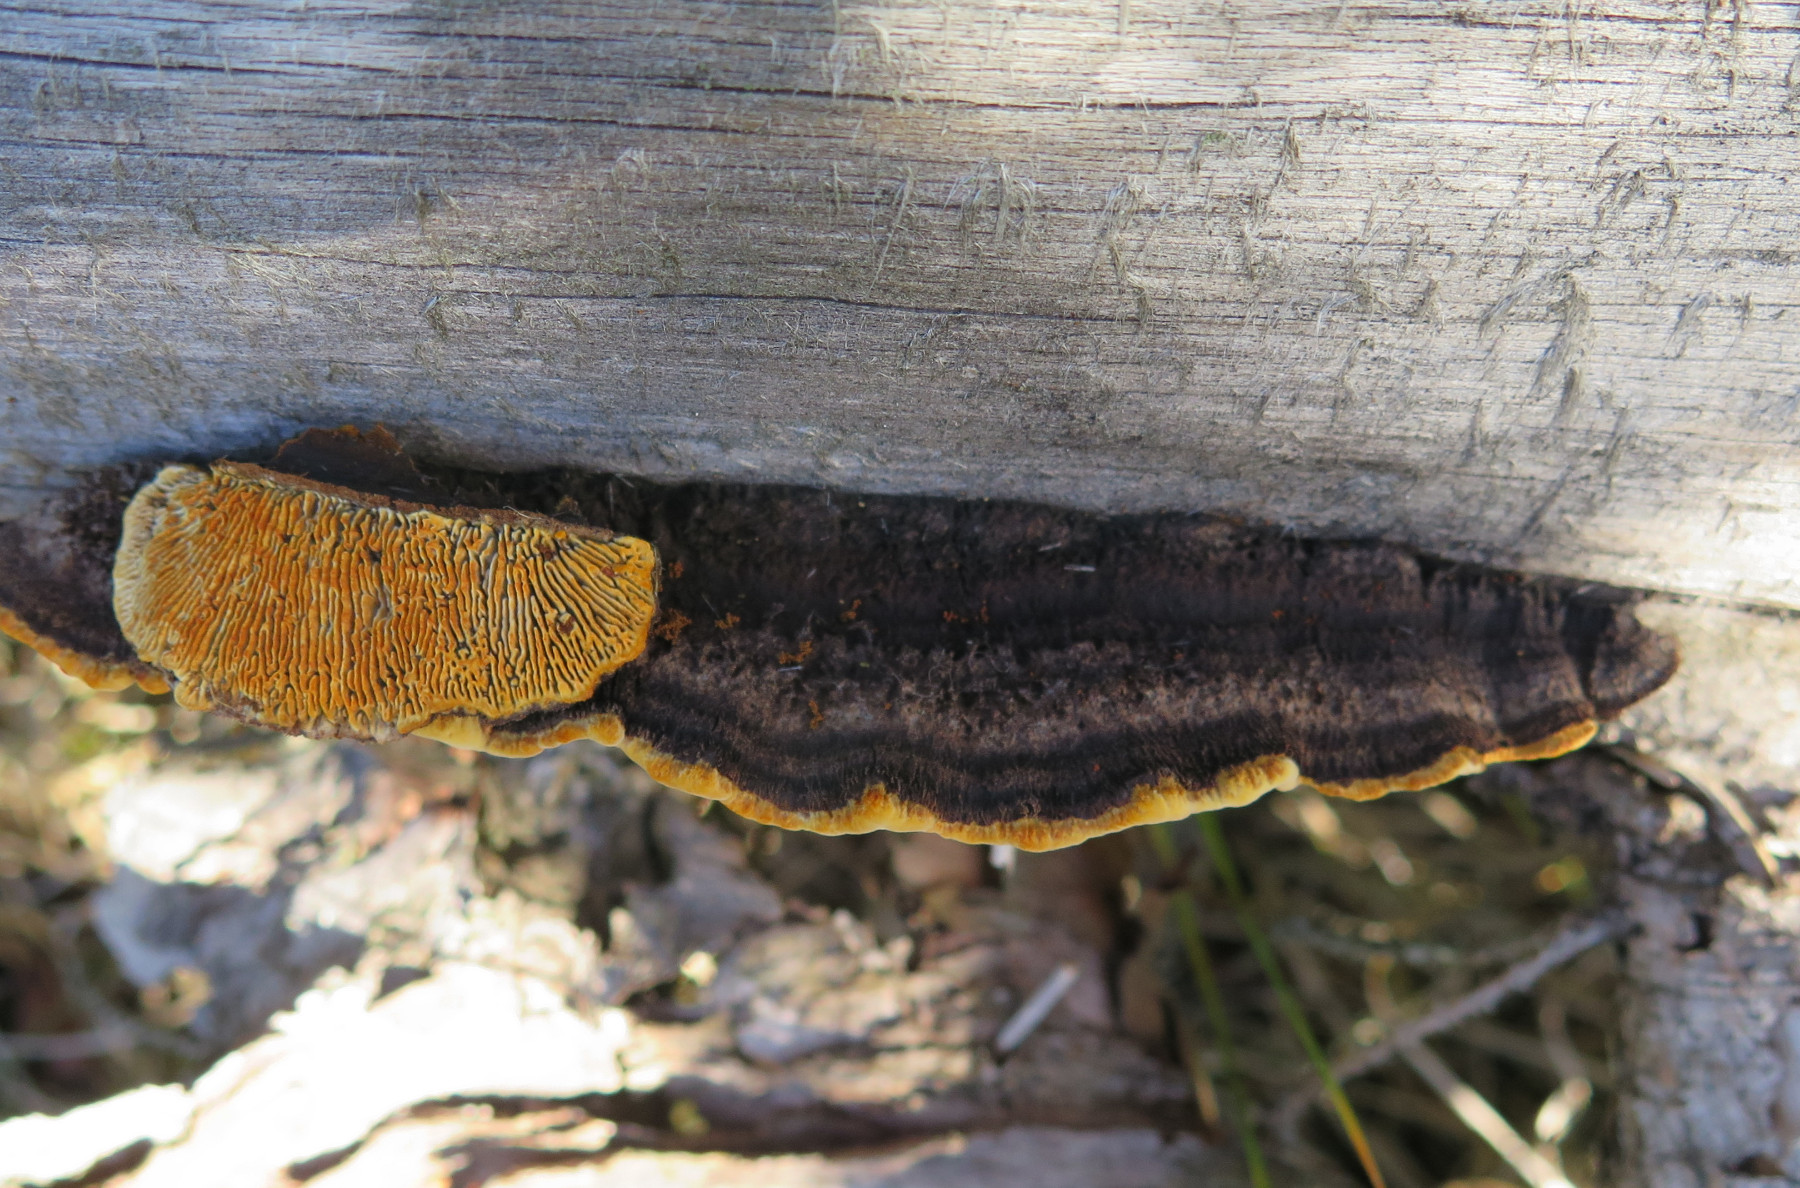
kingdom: Fungi
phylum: Basidiomycota
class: Agaricomycetes
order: Gloeophyllales
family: Gloeophyllaceae
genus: Gloeophyllum
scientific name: Gloeophyllum sepiarium
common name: fyrre-korkhat
